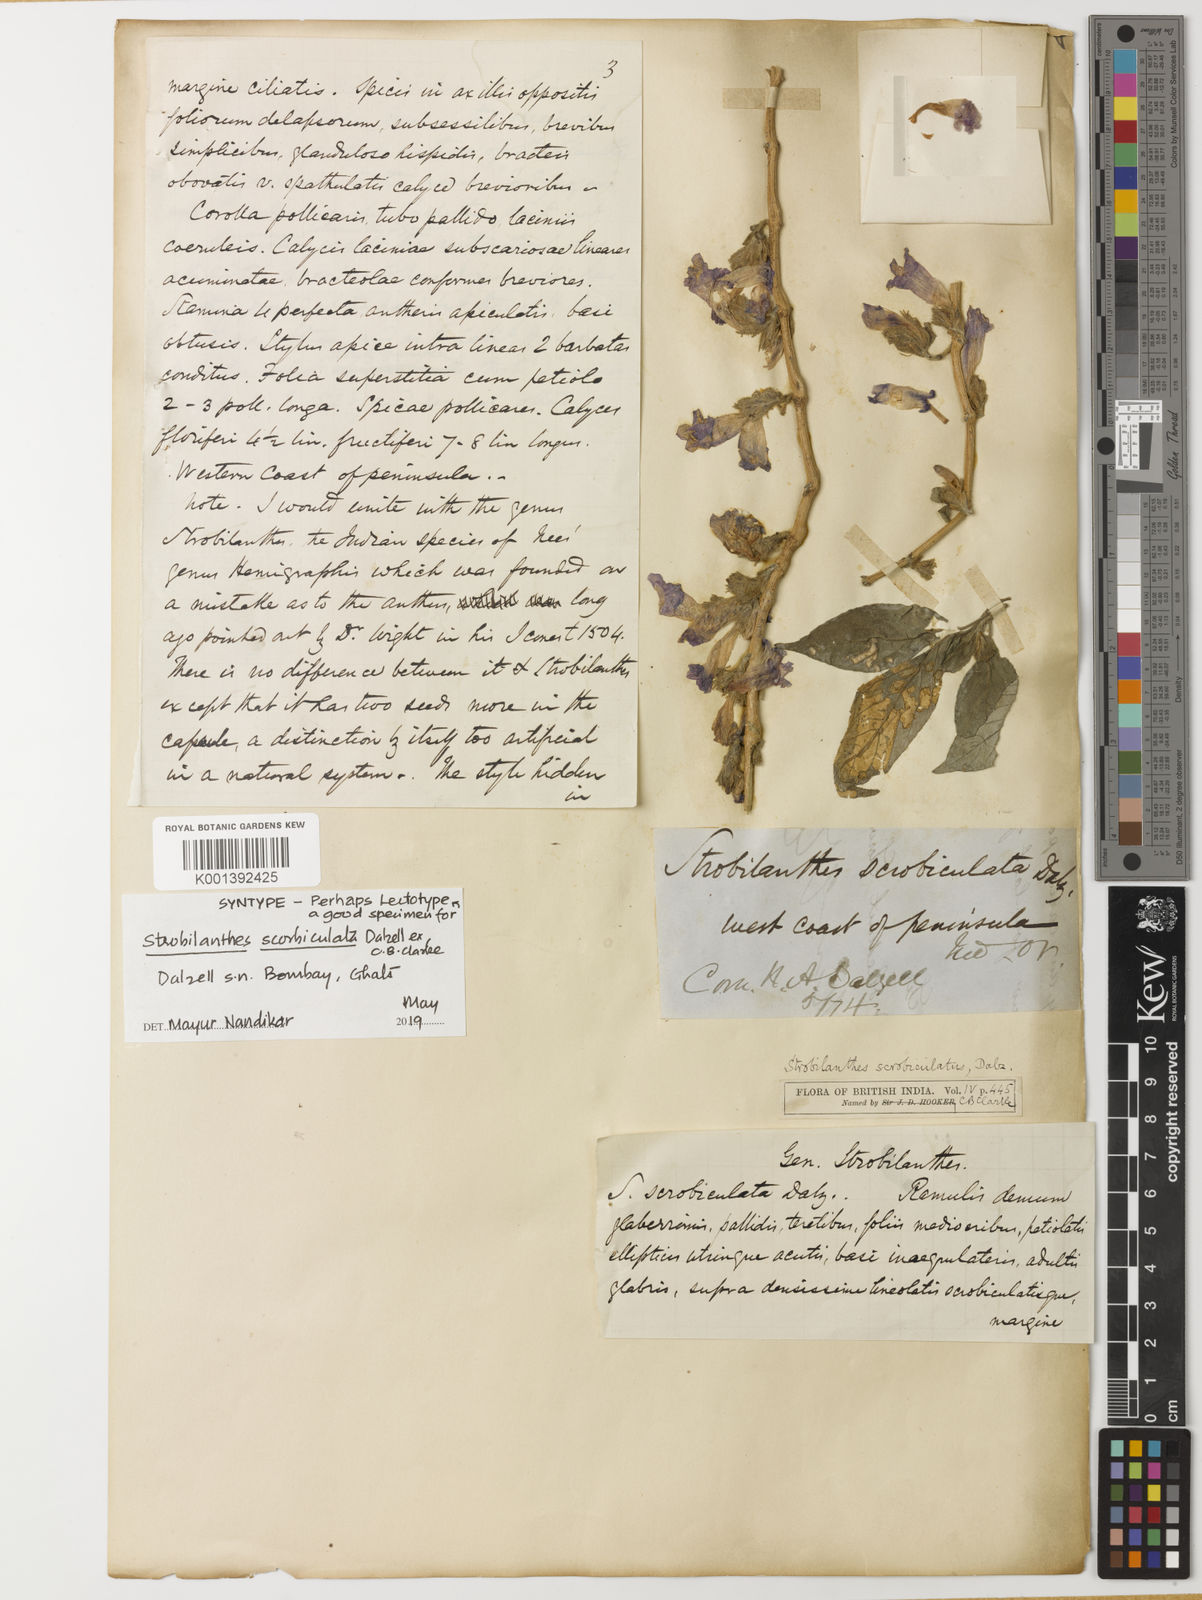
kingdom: Plantae
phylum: Tracheophyta
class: Magnoliopsida
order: Lamiales
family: Acanthaceae
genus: Strobilanthes
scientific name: Strobilanthes scrobiculata
